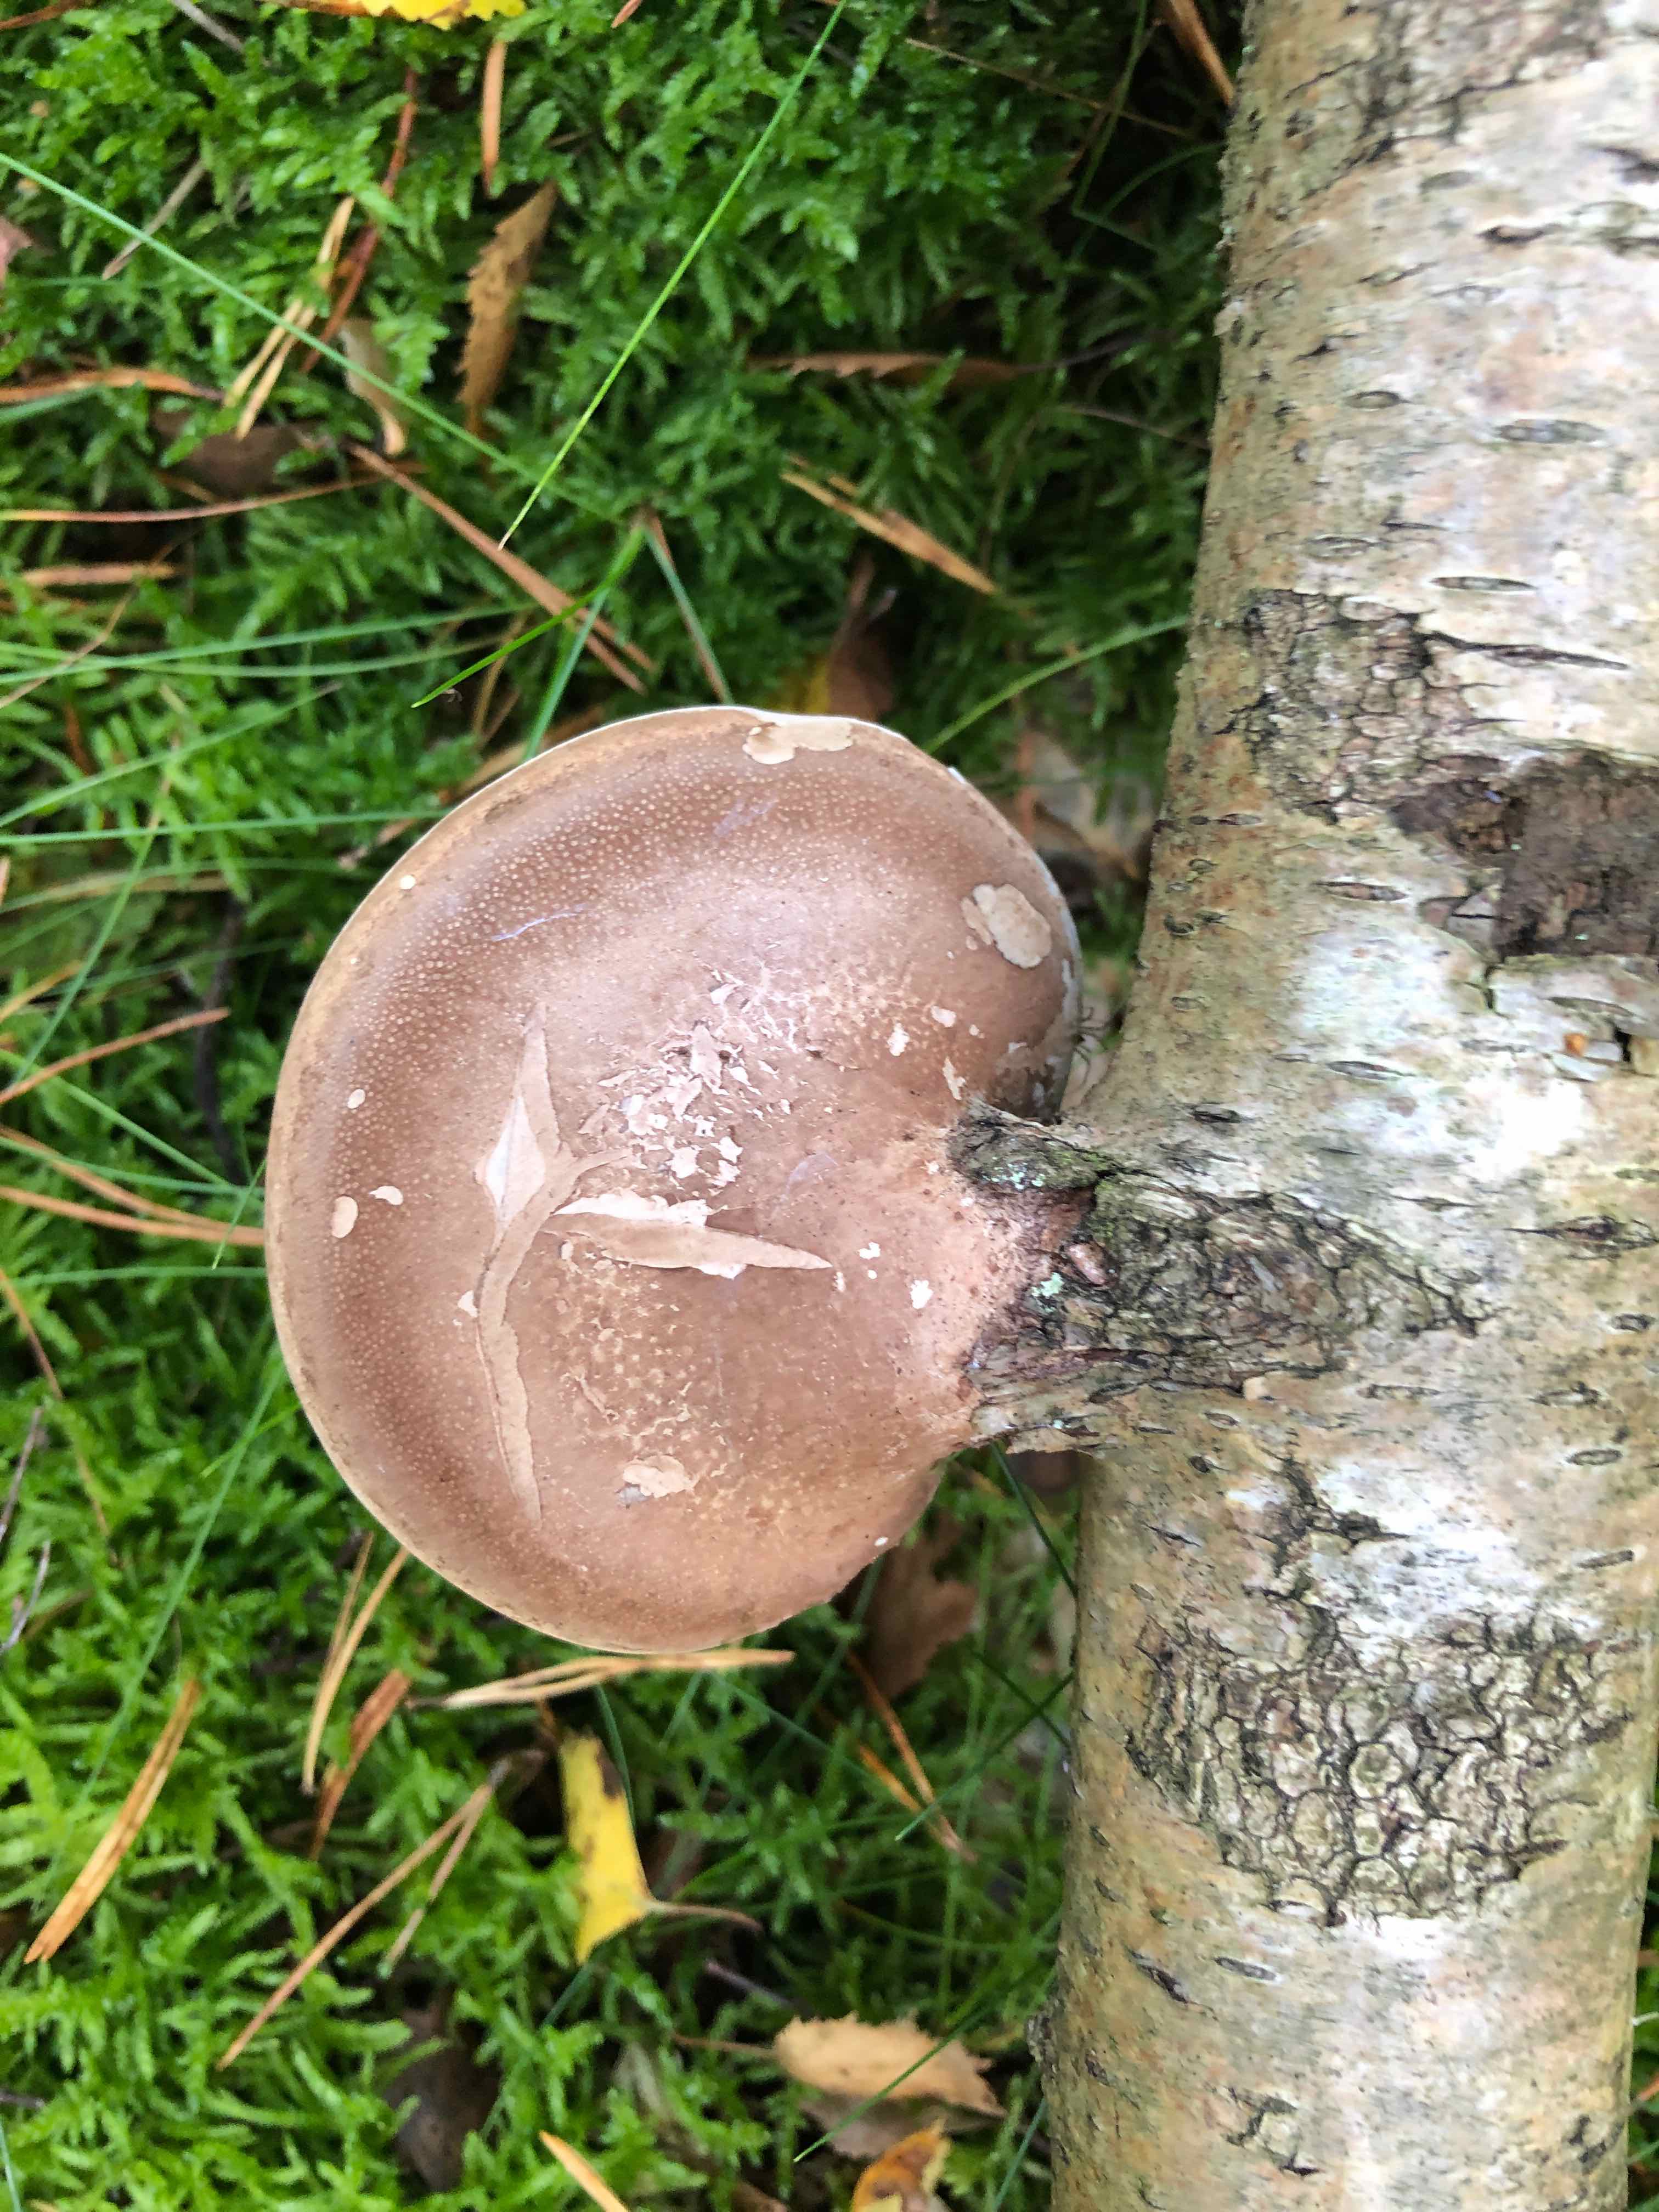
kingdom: Fungi
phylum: Basidiomycota
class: Agaricomycetes
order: Polyporales
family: Fomitopsidaceae
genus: Fomitopsis
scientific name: Fomitopsis betulina
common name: birkeporesvamp
